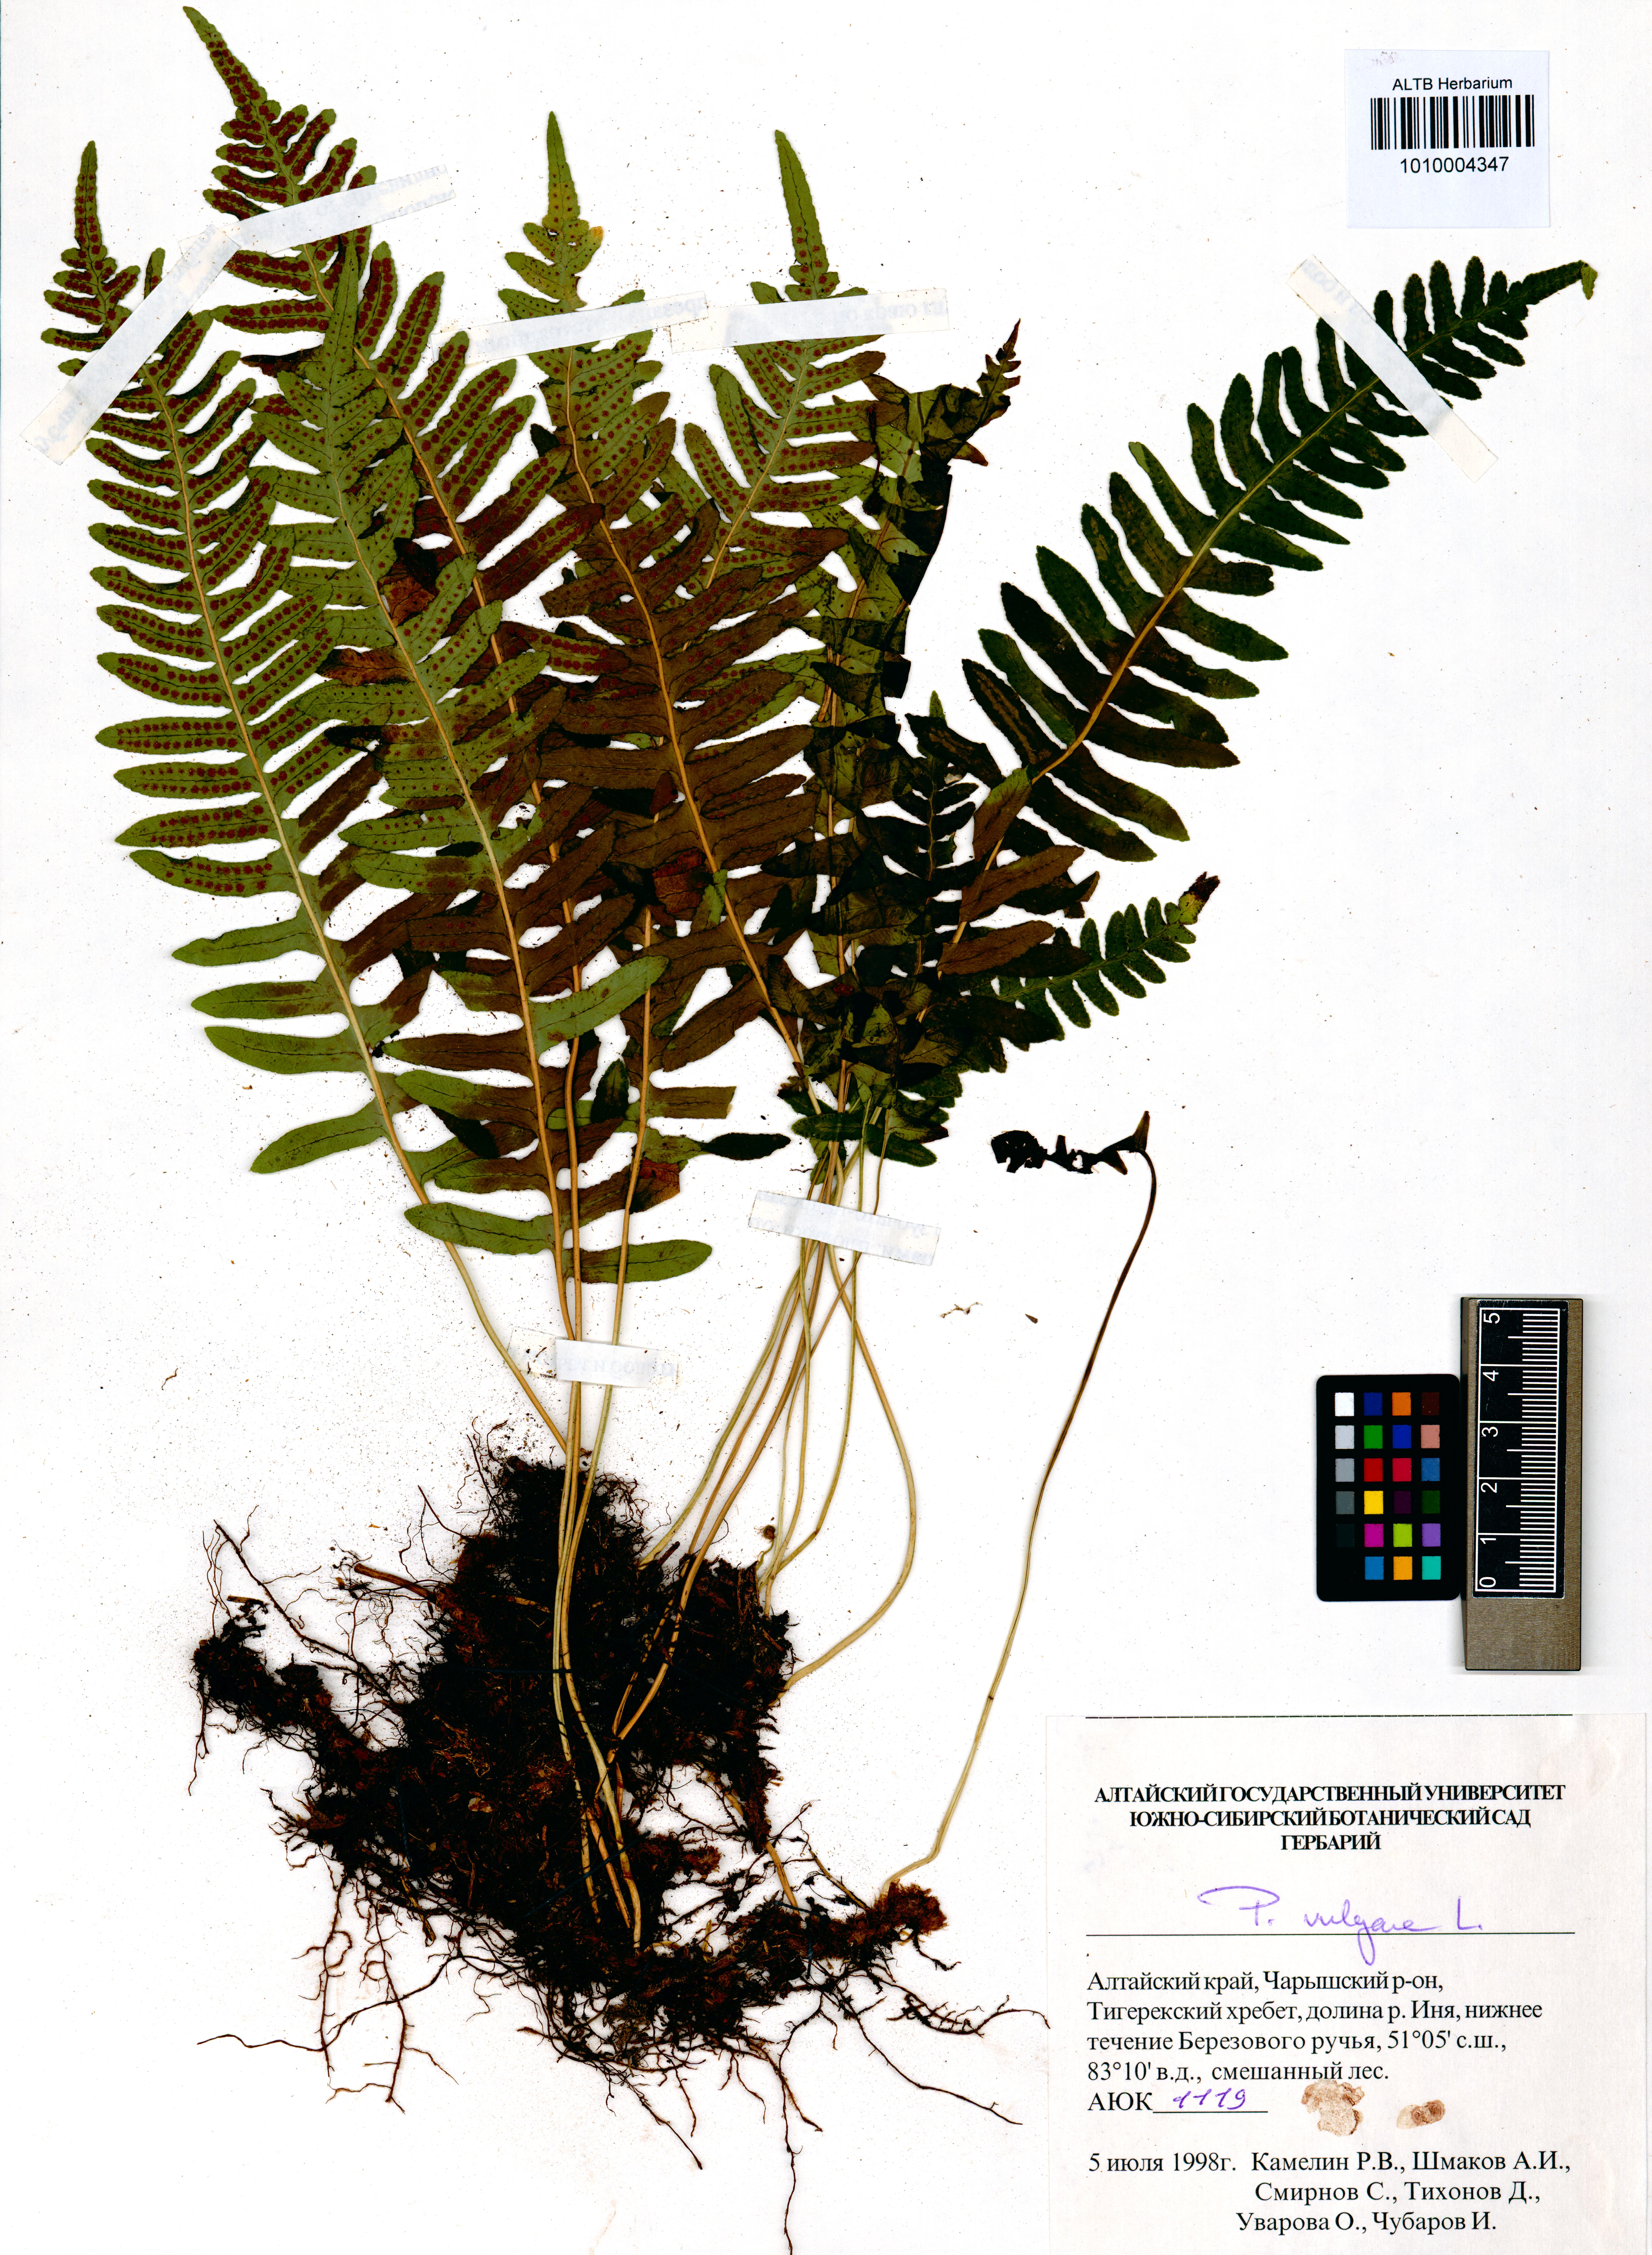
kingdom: Plantae
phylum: Tracheophyta
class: Polypodiopsida
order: Polypodiales
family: Polypodiaceae
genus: Polypodium
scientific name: Polypodium vulgare
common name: Common polypody
